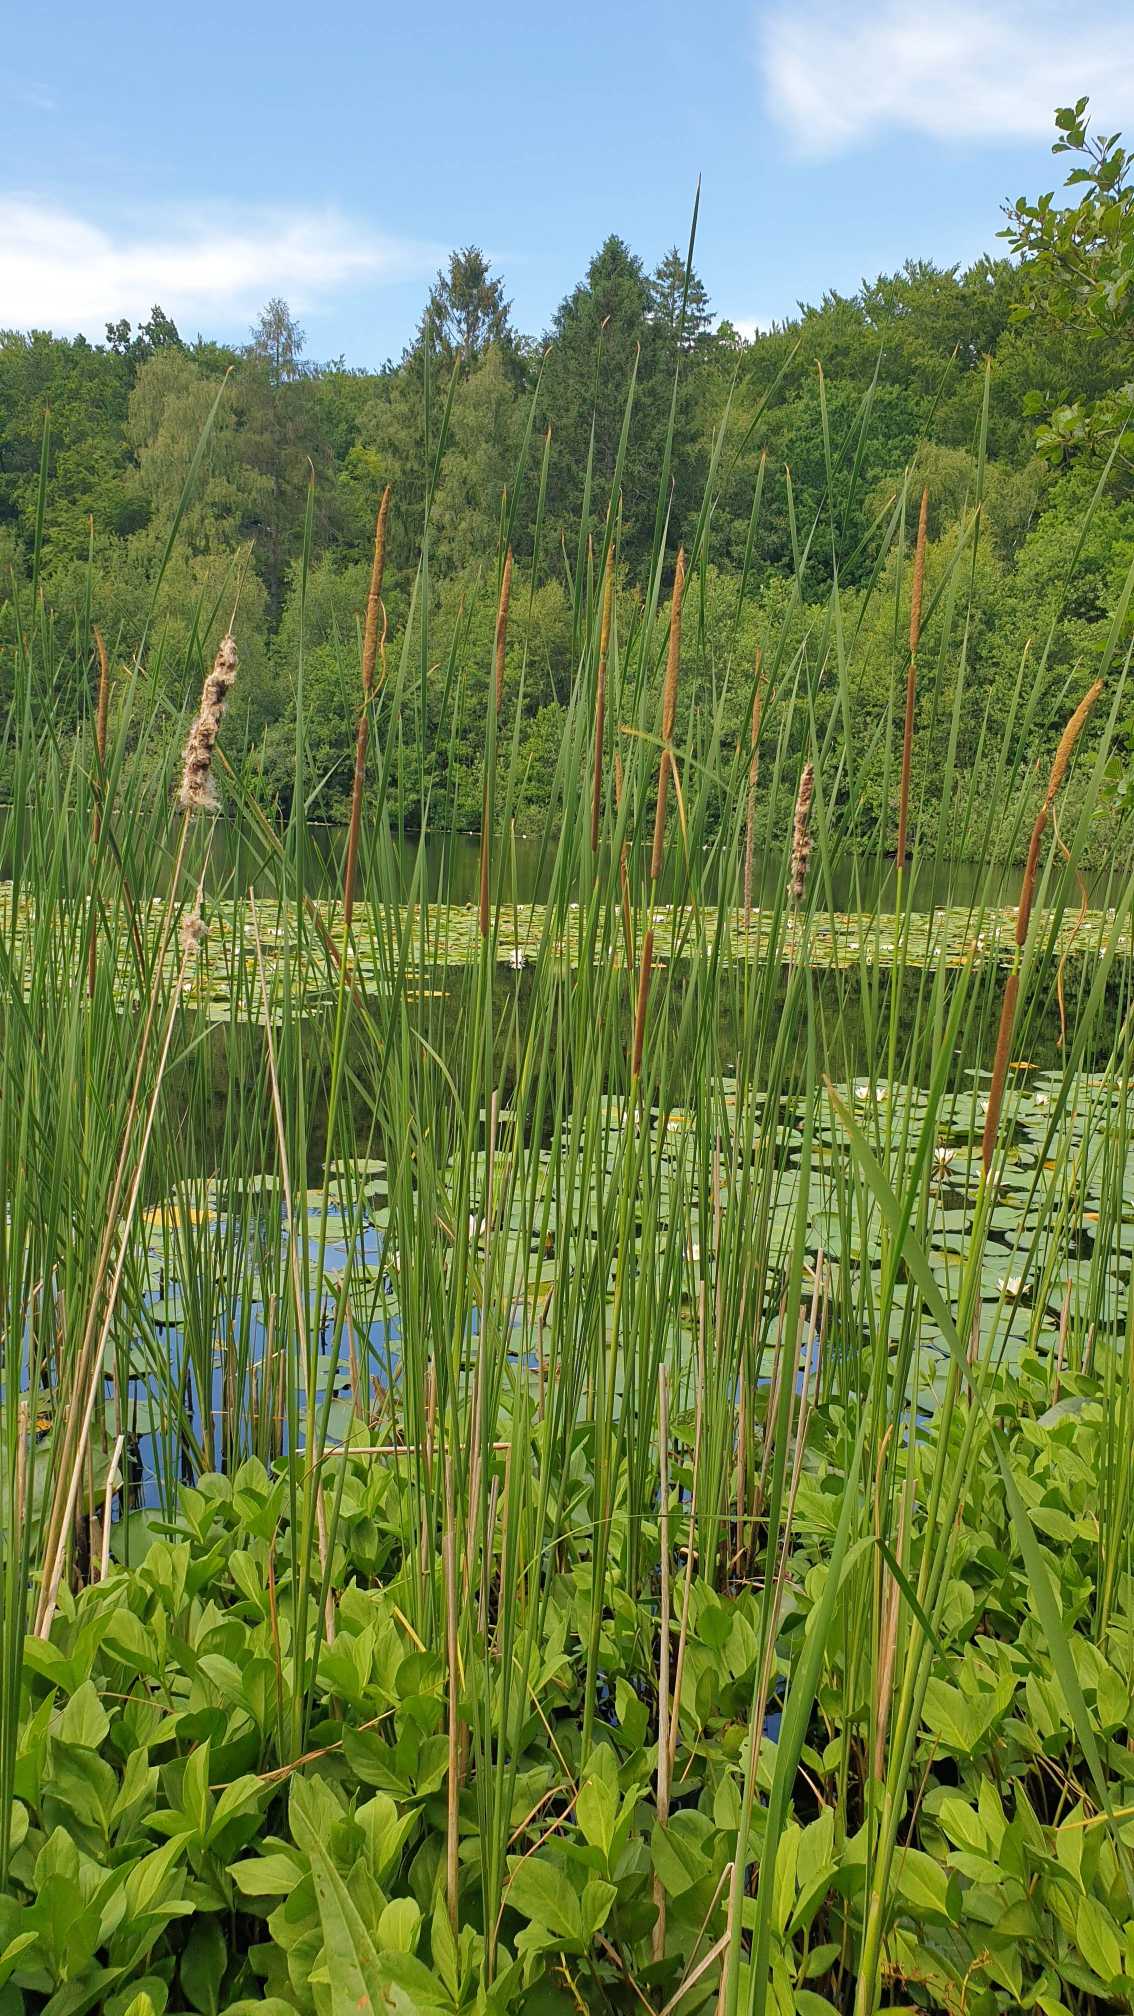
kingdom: Plantae
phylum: Tracheophyta
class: Liliopsida
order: Poales
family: Typhaceae
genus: Typha
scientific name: Typha angustifolia
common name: Smalbladet dunhammer
